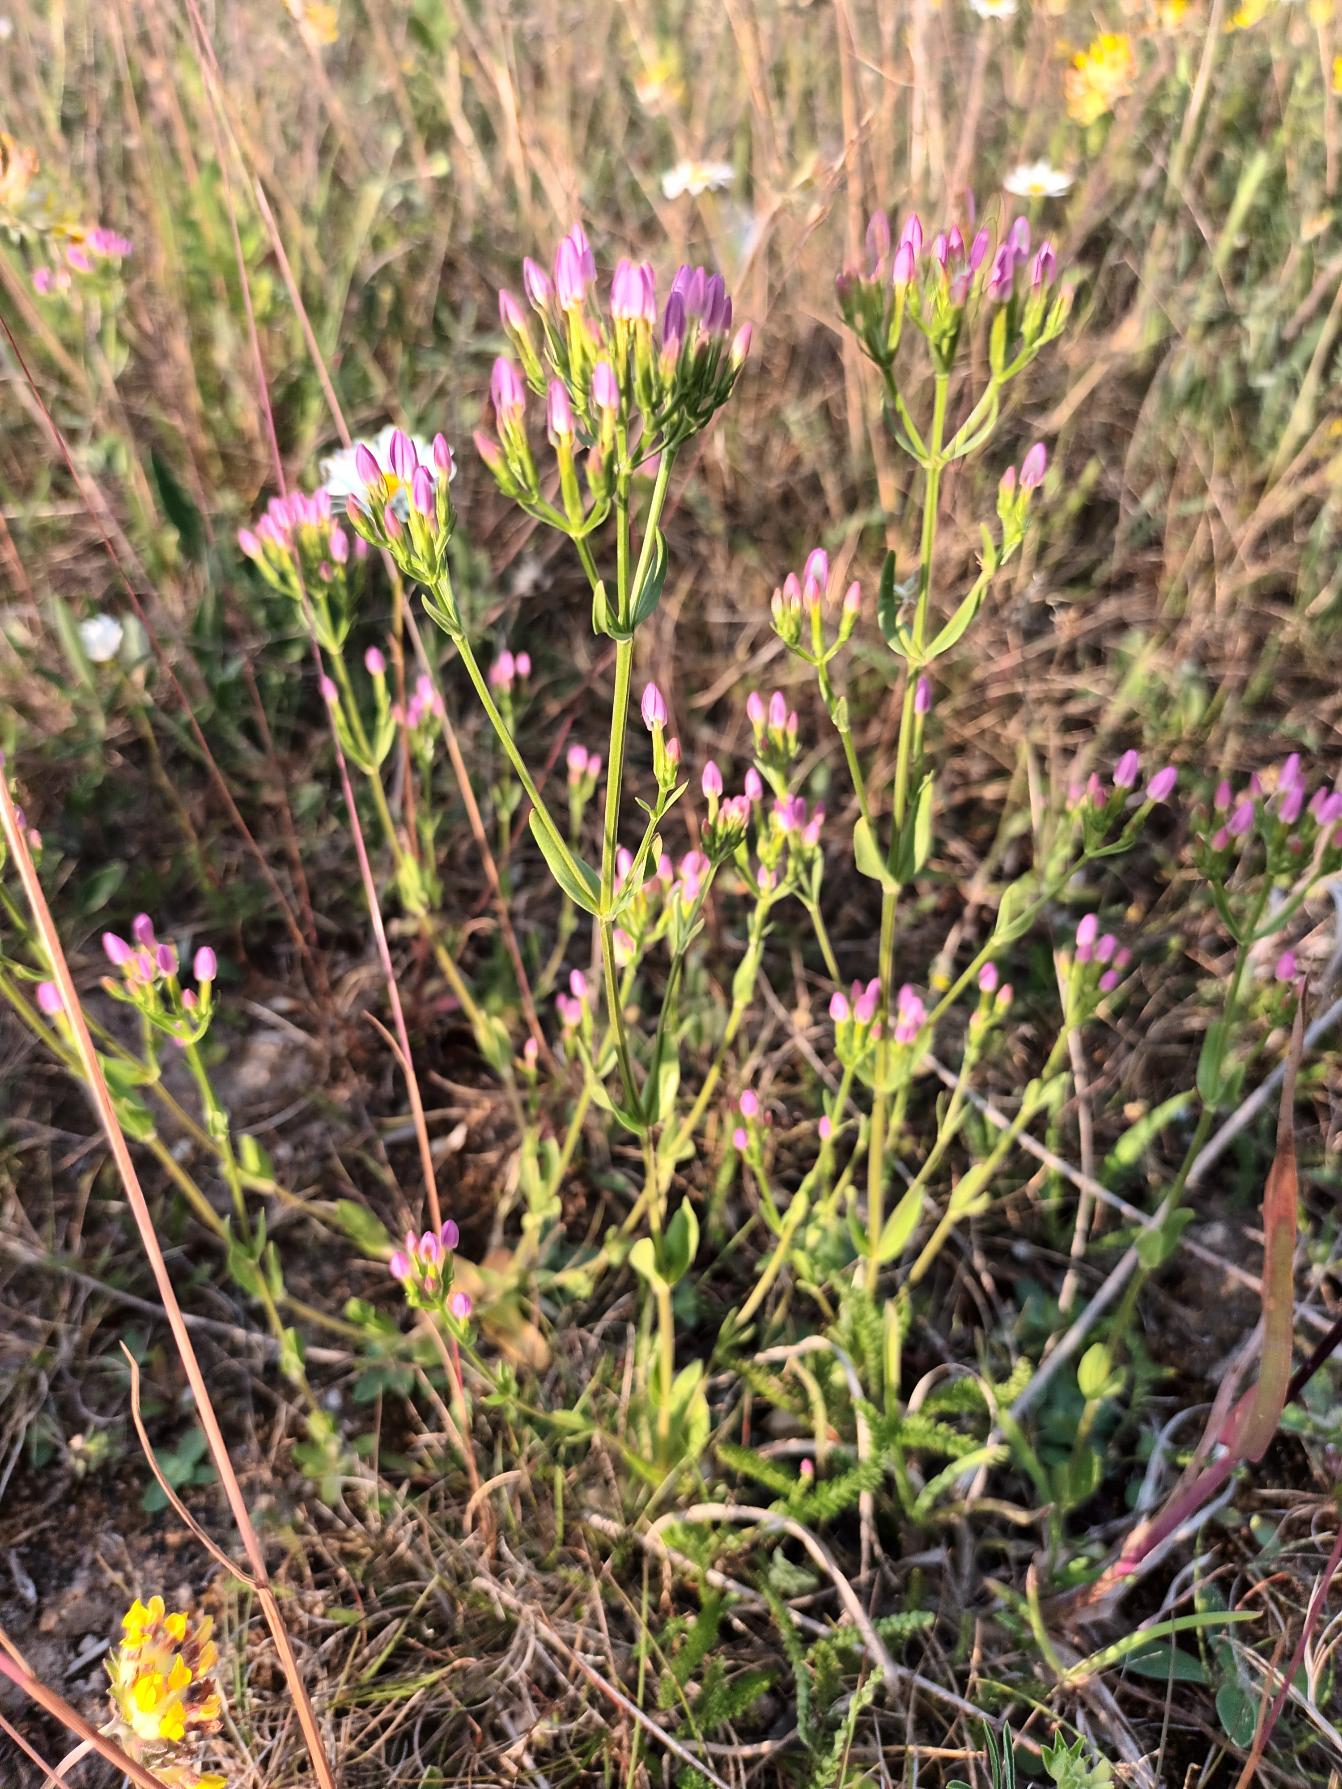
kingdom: Plantae
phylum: Tracheophyta
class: Magnoliopsida
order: Gentianales
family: Gentianaceae
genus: Centaurium
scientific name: Centaurium erythraea
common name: Mark-tusindgylden
